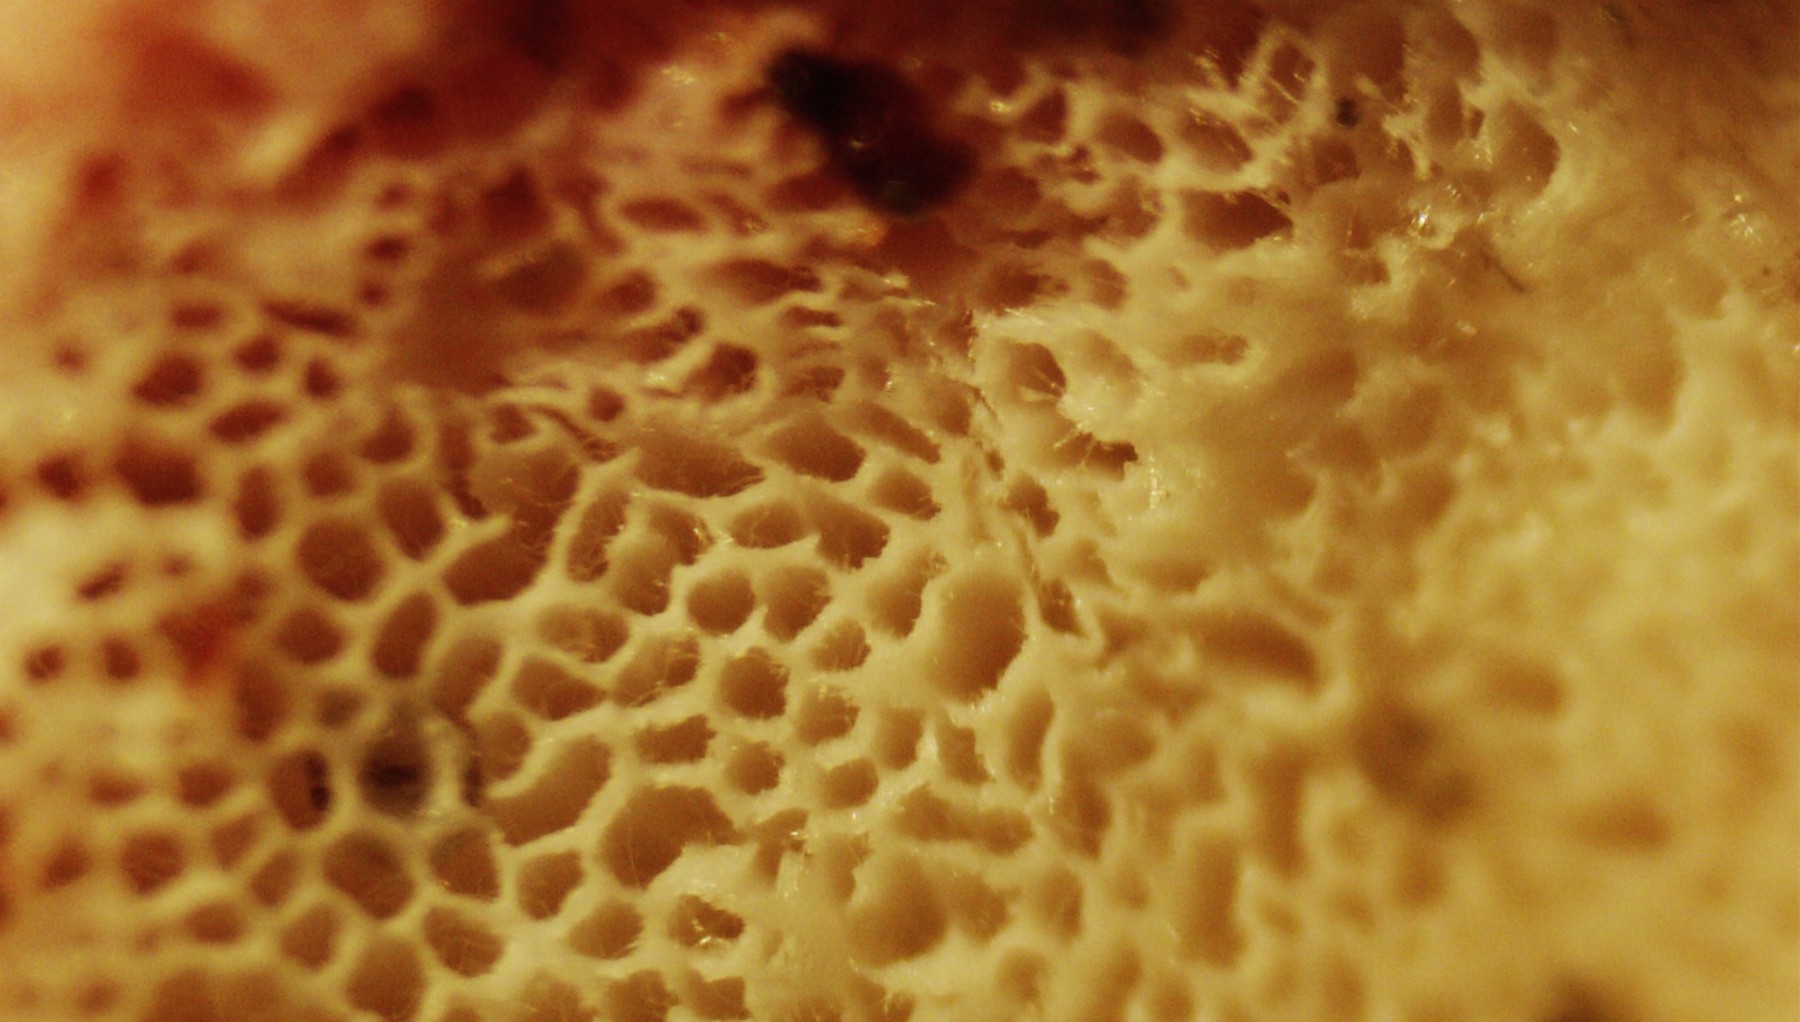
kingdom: Fungi
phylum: Basidiomycota
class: Agaricomycetes
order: Polyporales
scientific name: Polyporales
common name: poresvampordenen
